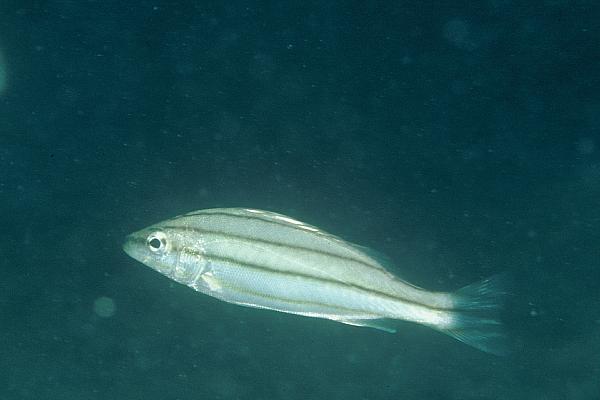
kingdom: Animalia
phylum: Chordata
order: Perciformes
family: Terapontidae
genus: Terapon
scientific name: Terapon puta
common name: Small-scaled terapon
